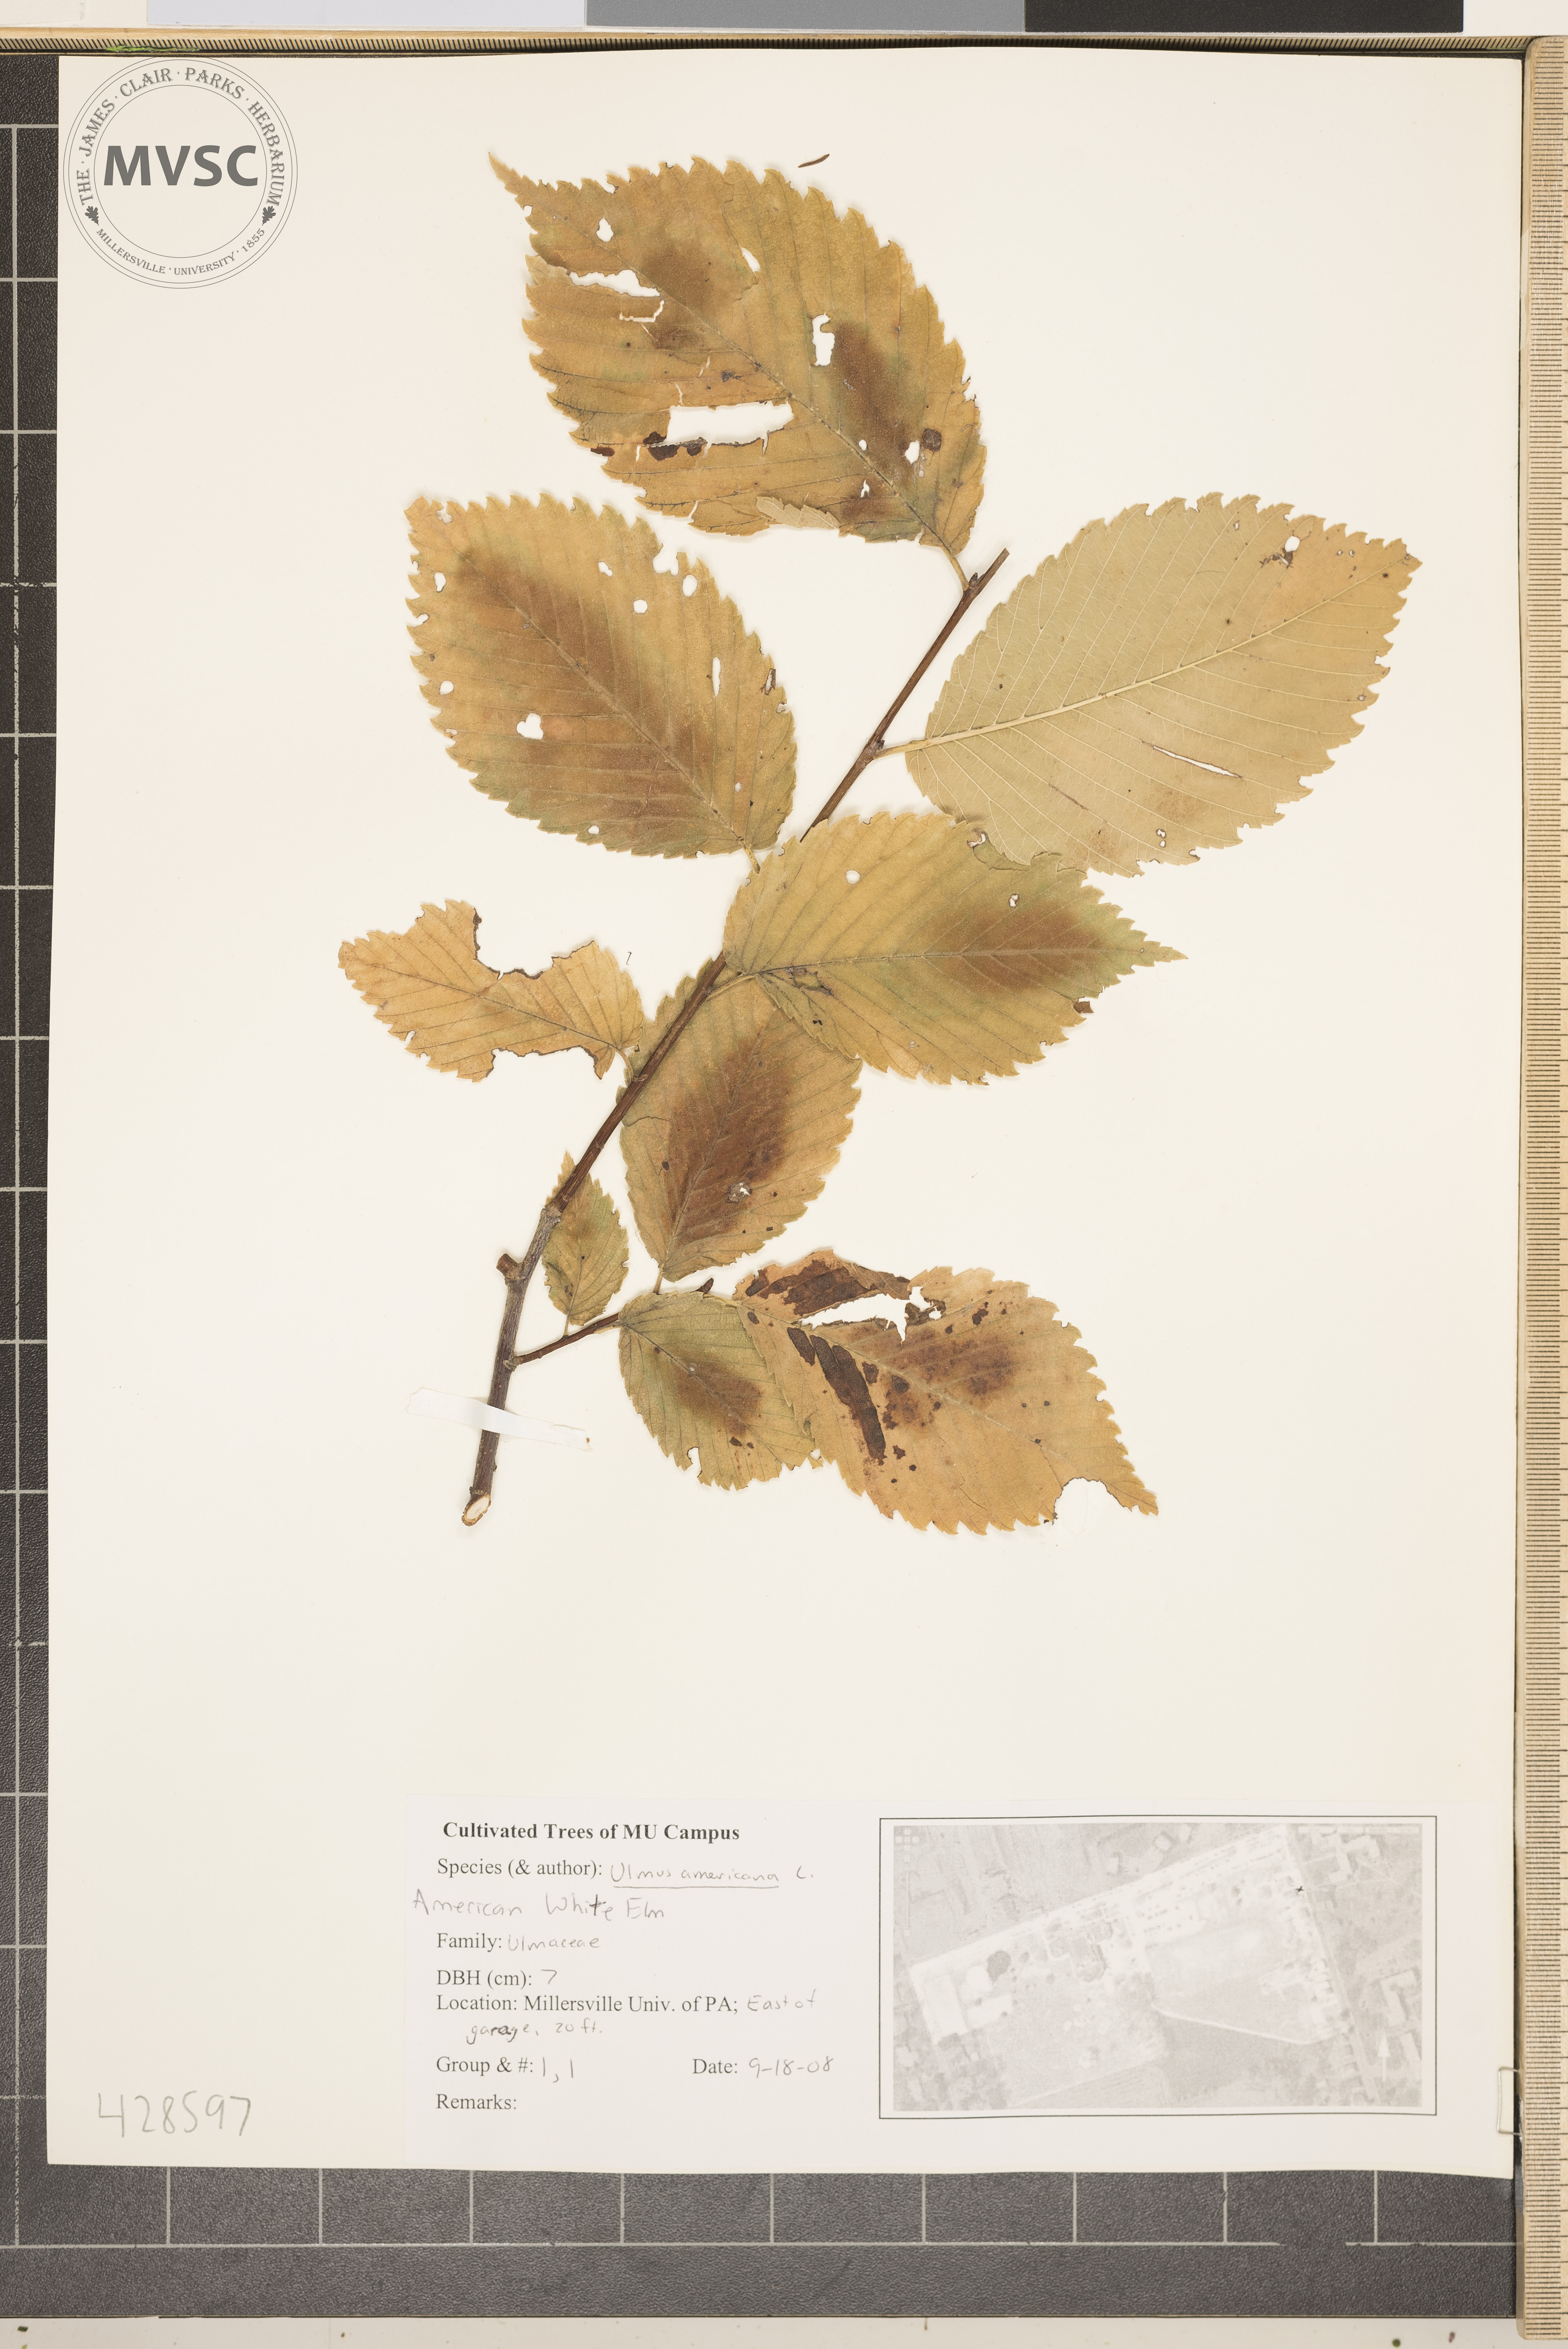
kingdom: Plantae
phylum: Tracheophyta
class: Magnoliopsida
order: Rosales
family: Ulmaceae
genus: Ulmus
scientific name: Ulmus americana
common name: American Elm
